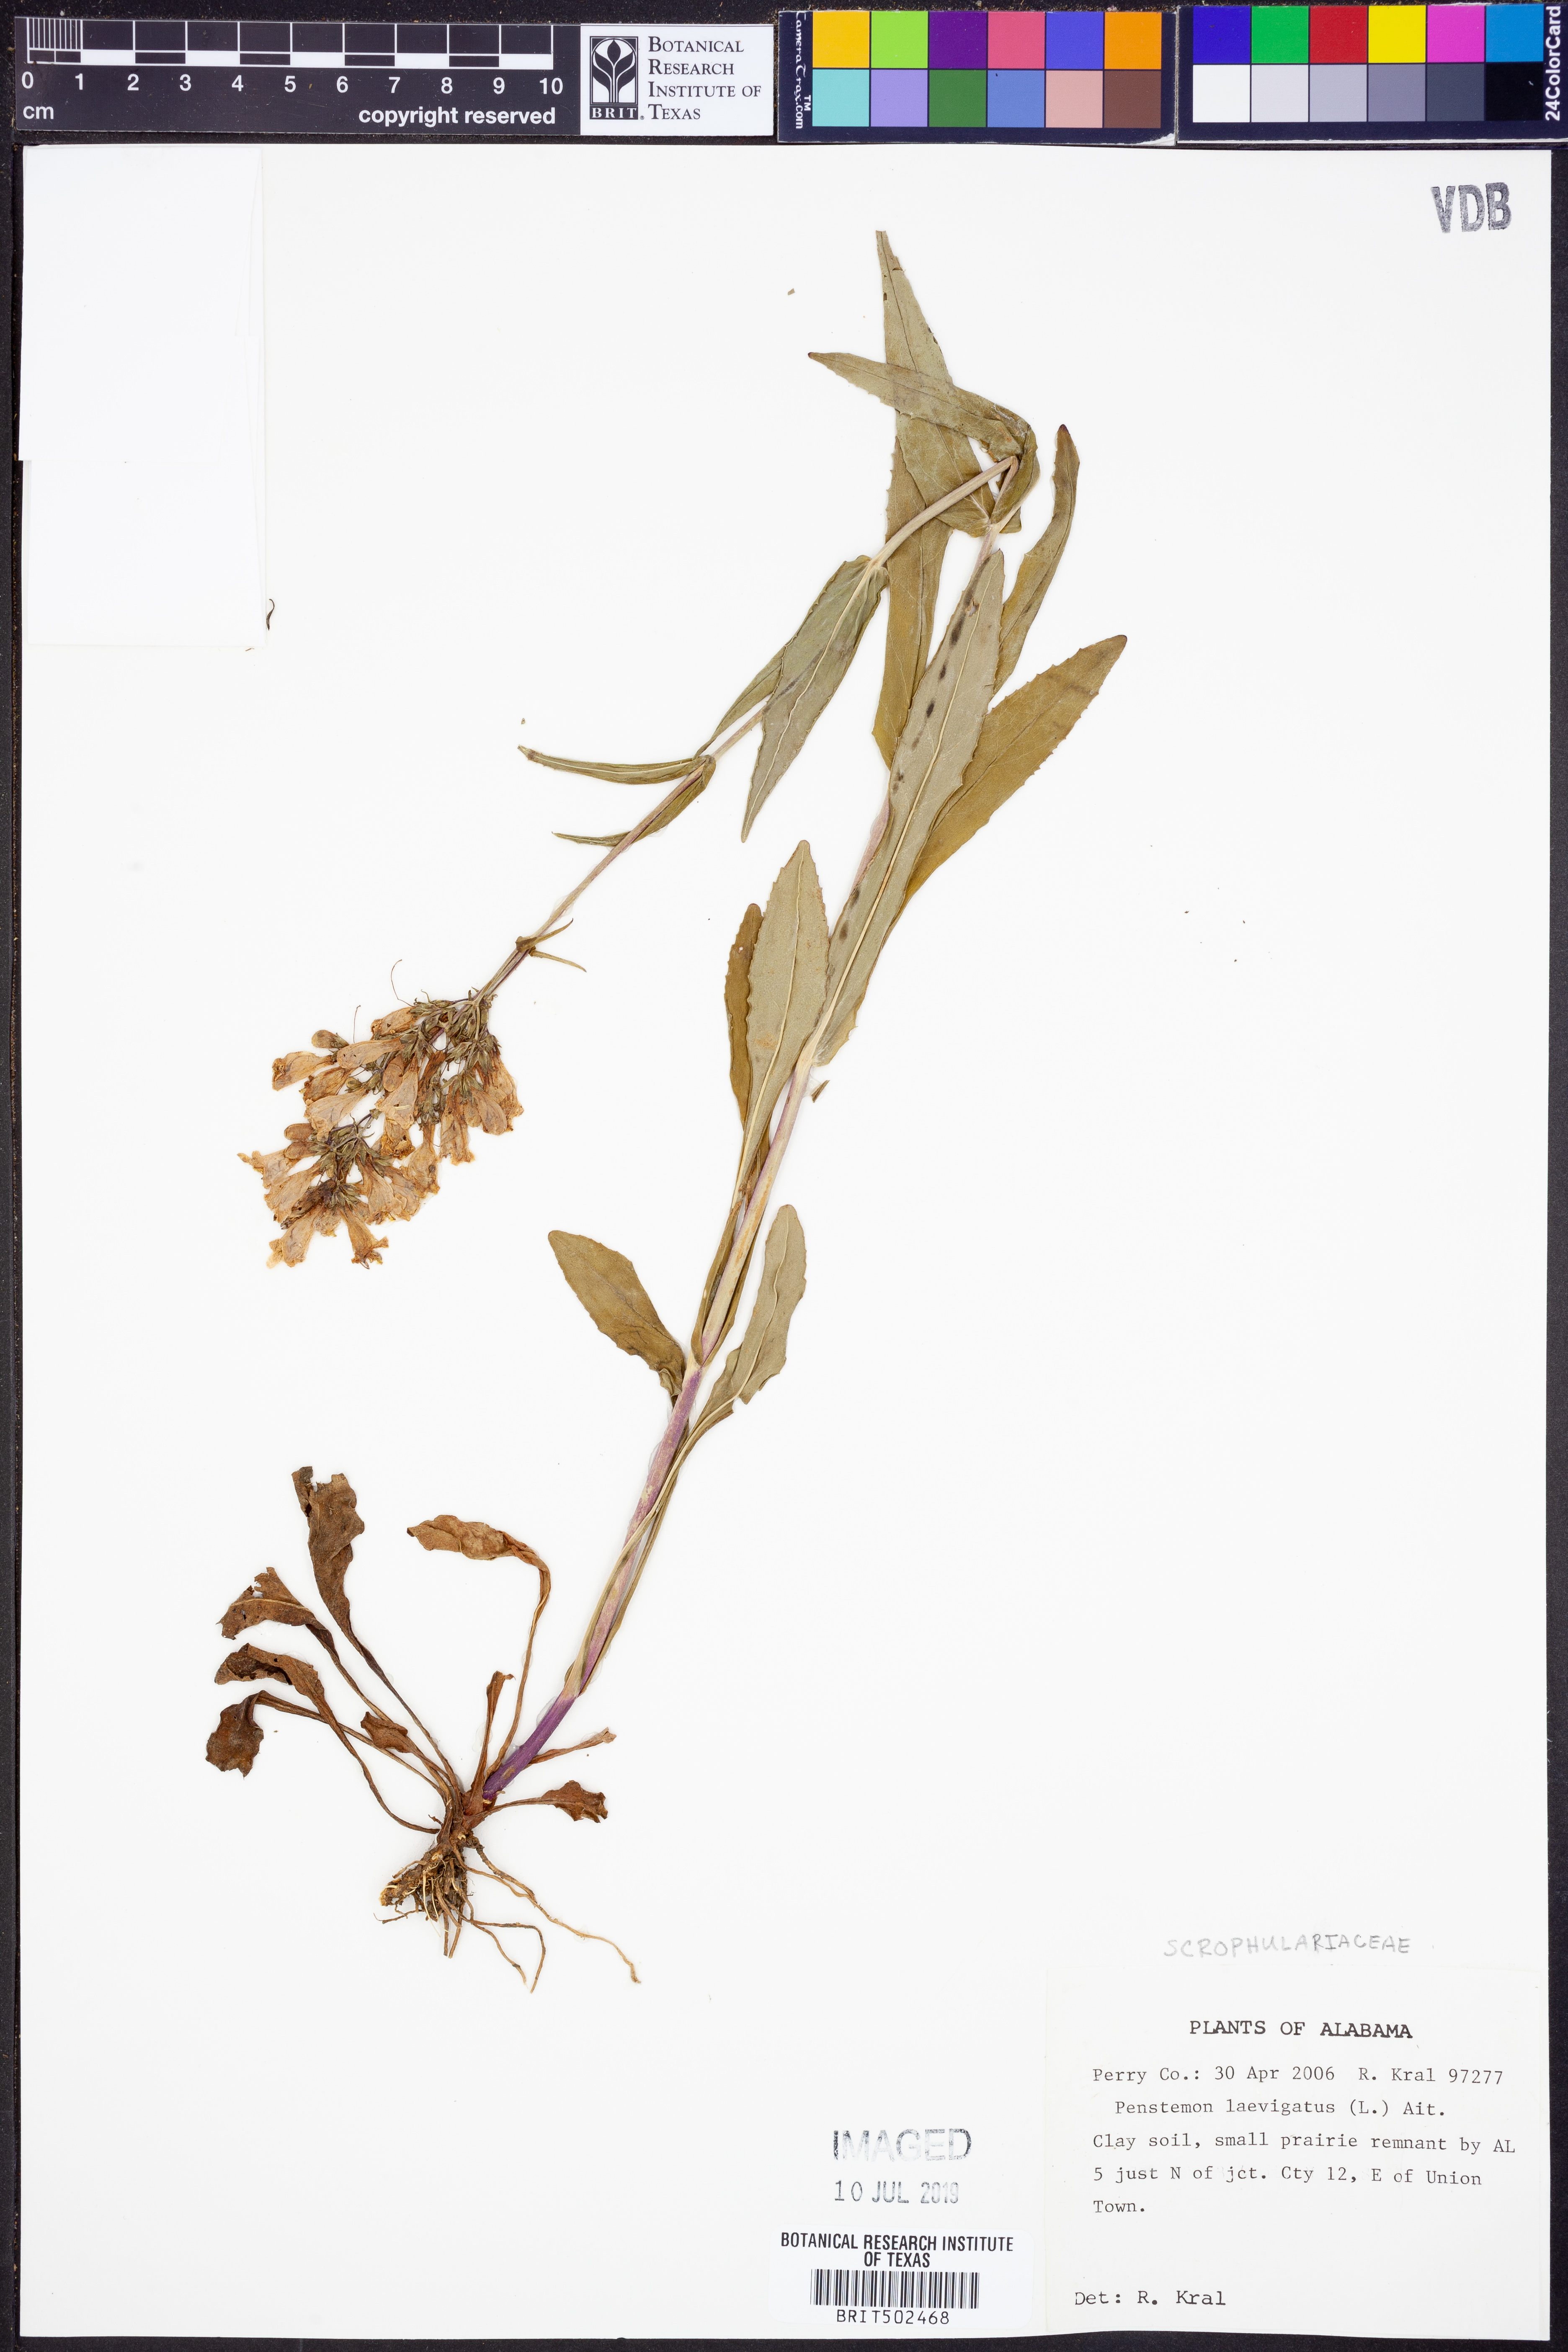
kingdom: Plantae
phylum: Tracheophyta
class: Magnoliopsida
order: Lamiales
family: Plantaginaceae
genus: Penstemon
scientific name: Penstemon laevigatus
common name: Eastern beardtongue
